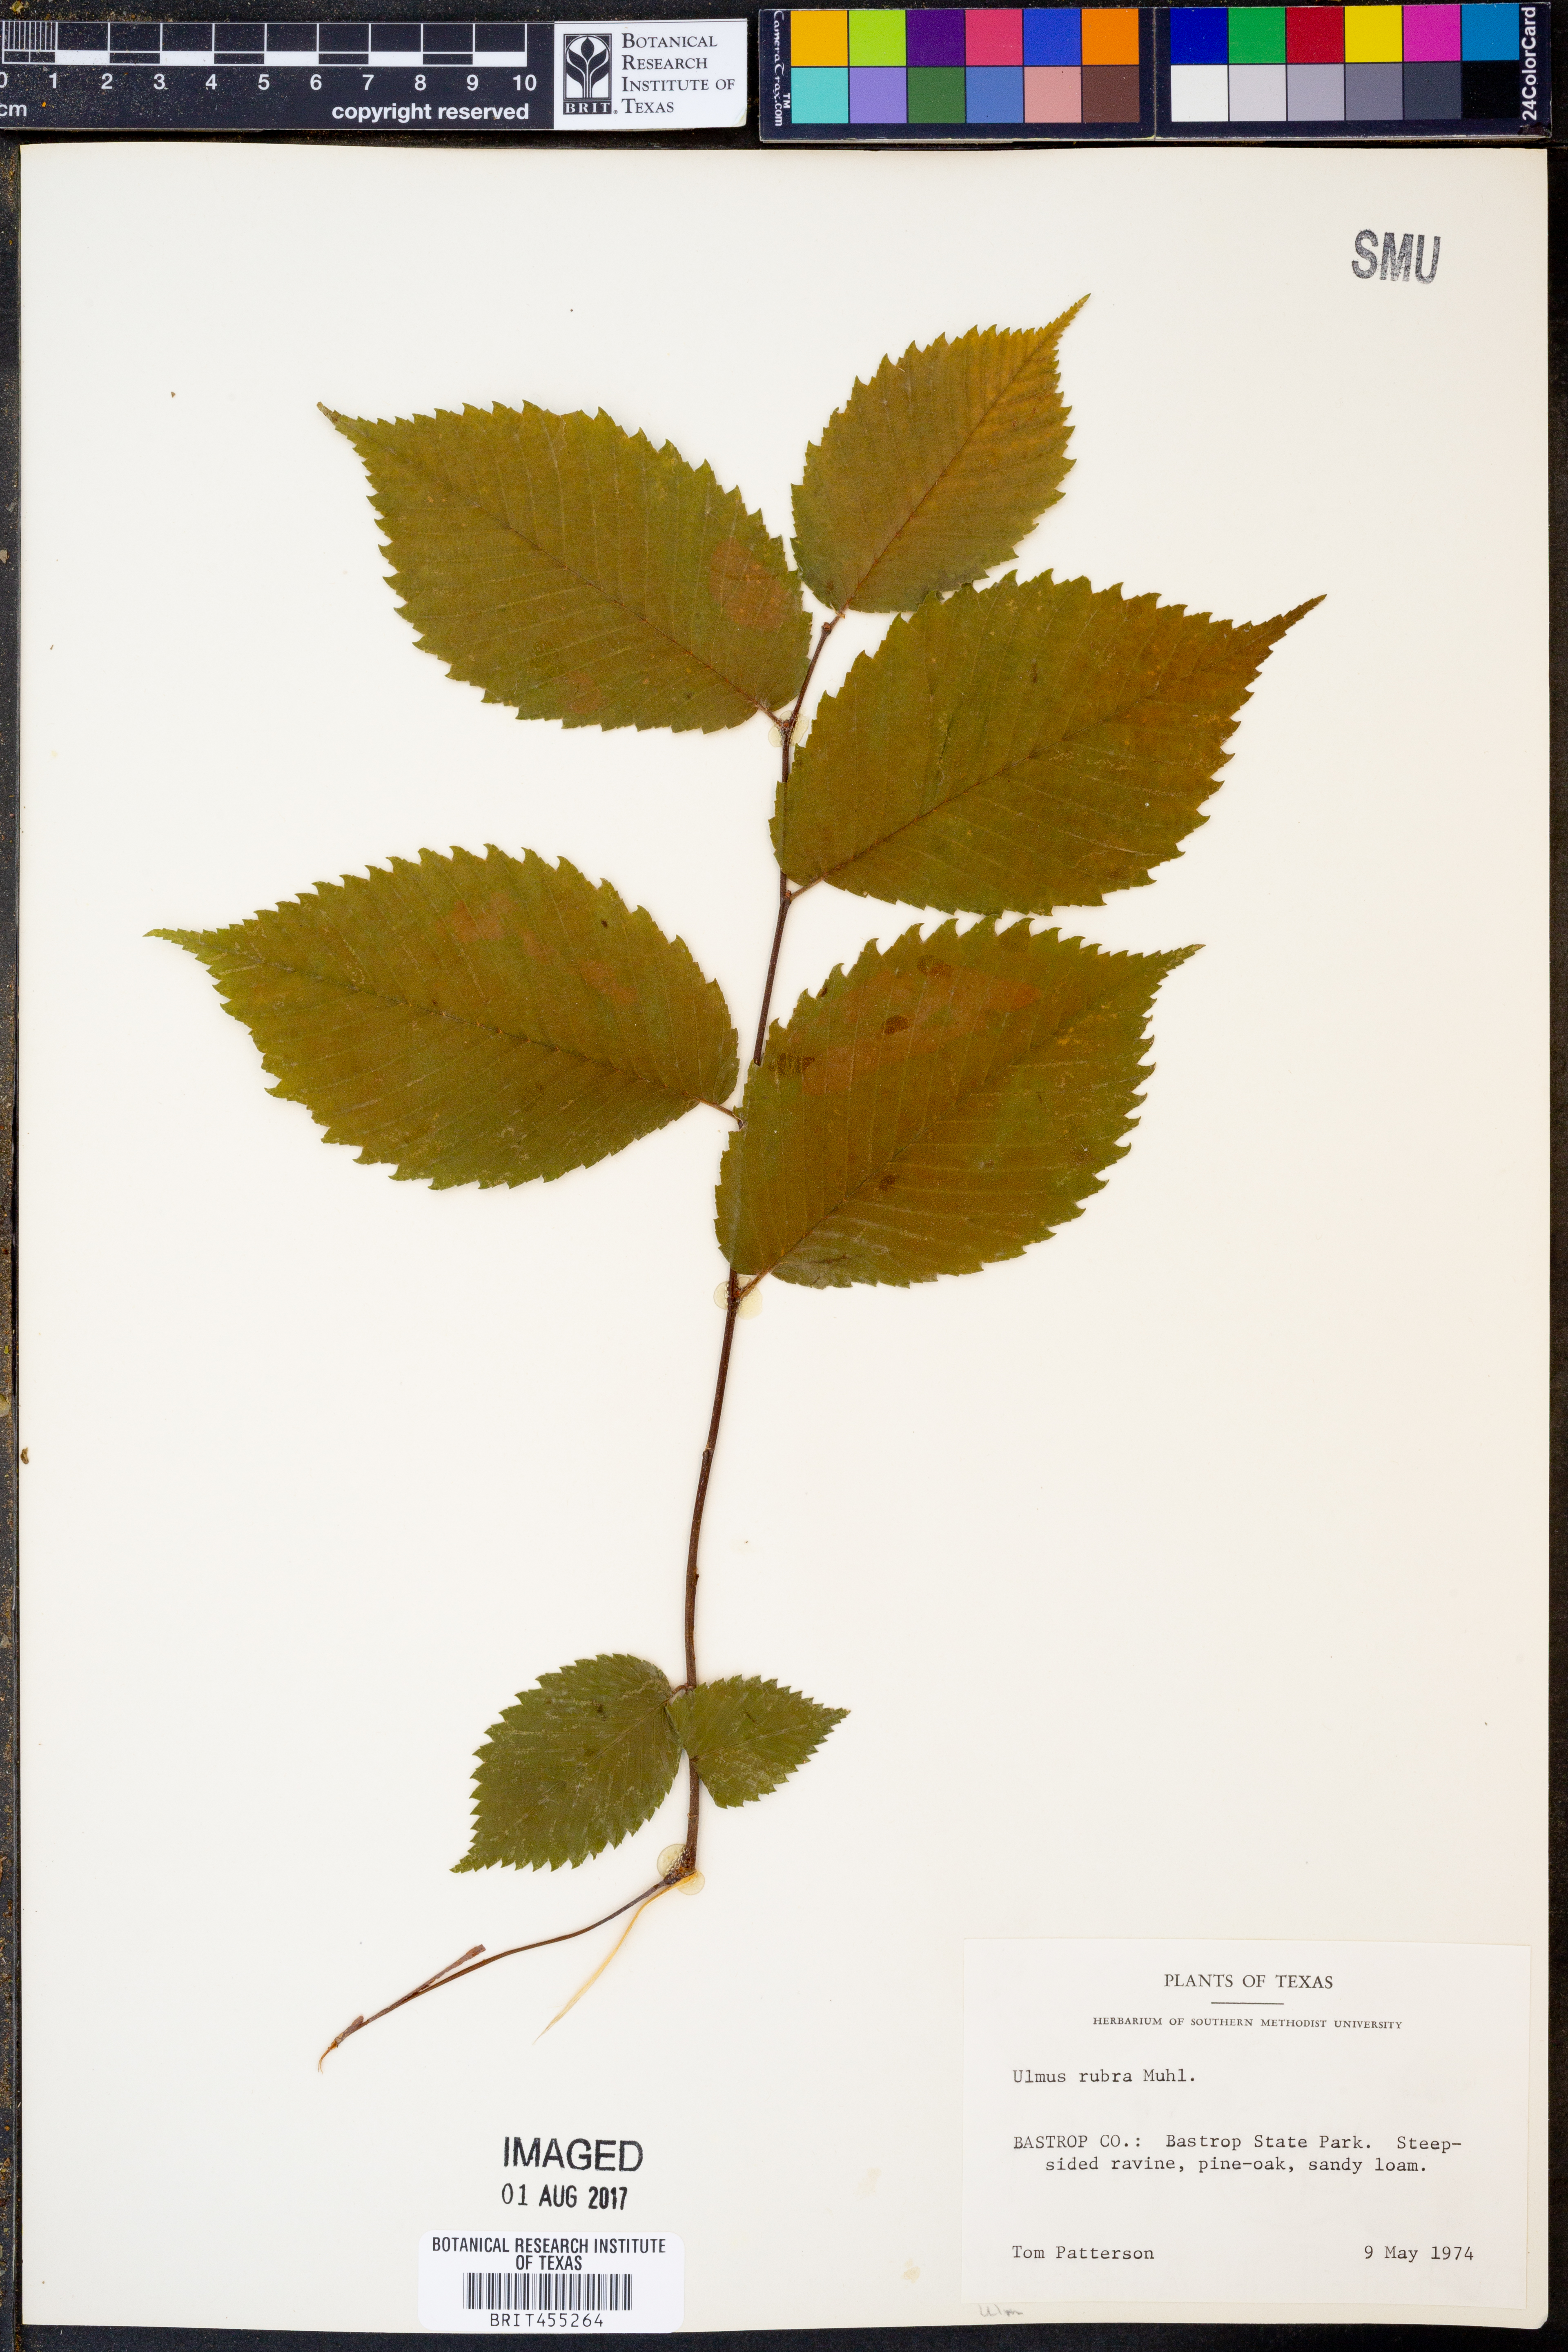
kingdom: Plantae
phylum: Tracheophyta
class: Magnoliopsida
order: Rosales
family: Ulmaceae
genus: Ulmus
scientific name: Ulmus rubra
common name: Slippery elm
